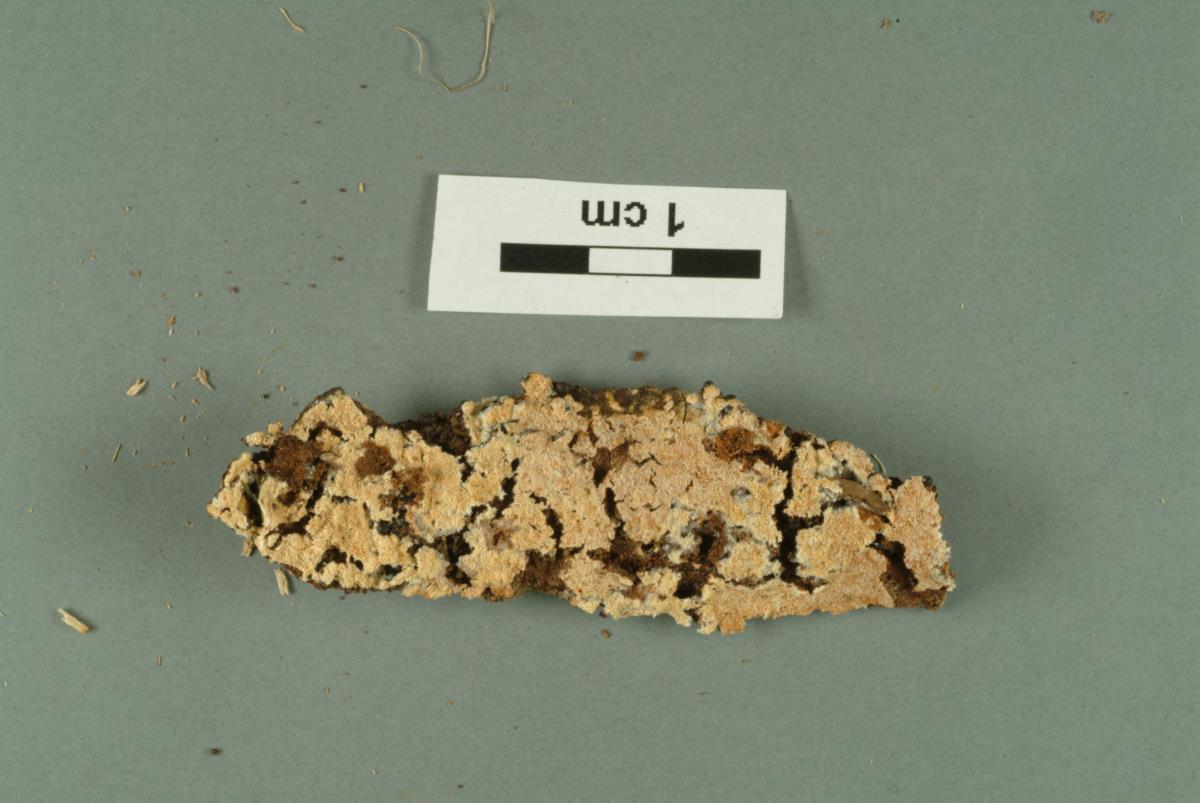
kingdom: Fungi
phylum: Basidiomycota
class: Agaricomycetes
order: Hymenochaetales
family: Schizoporaceae
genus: Schizopora
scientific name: Schizopora
